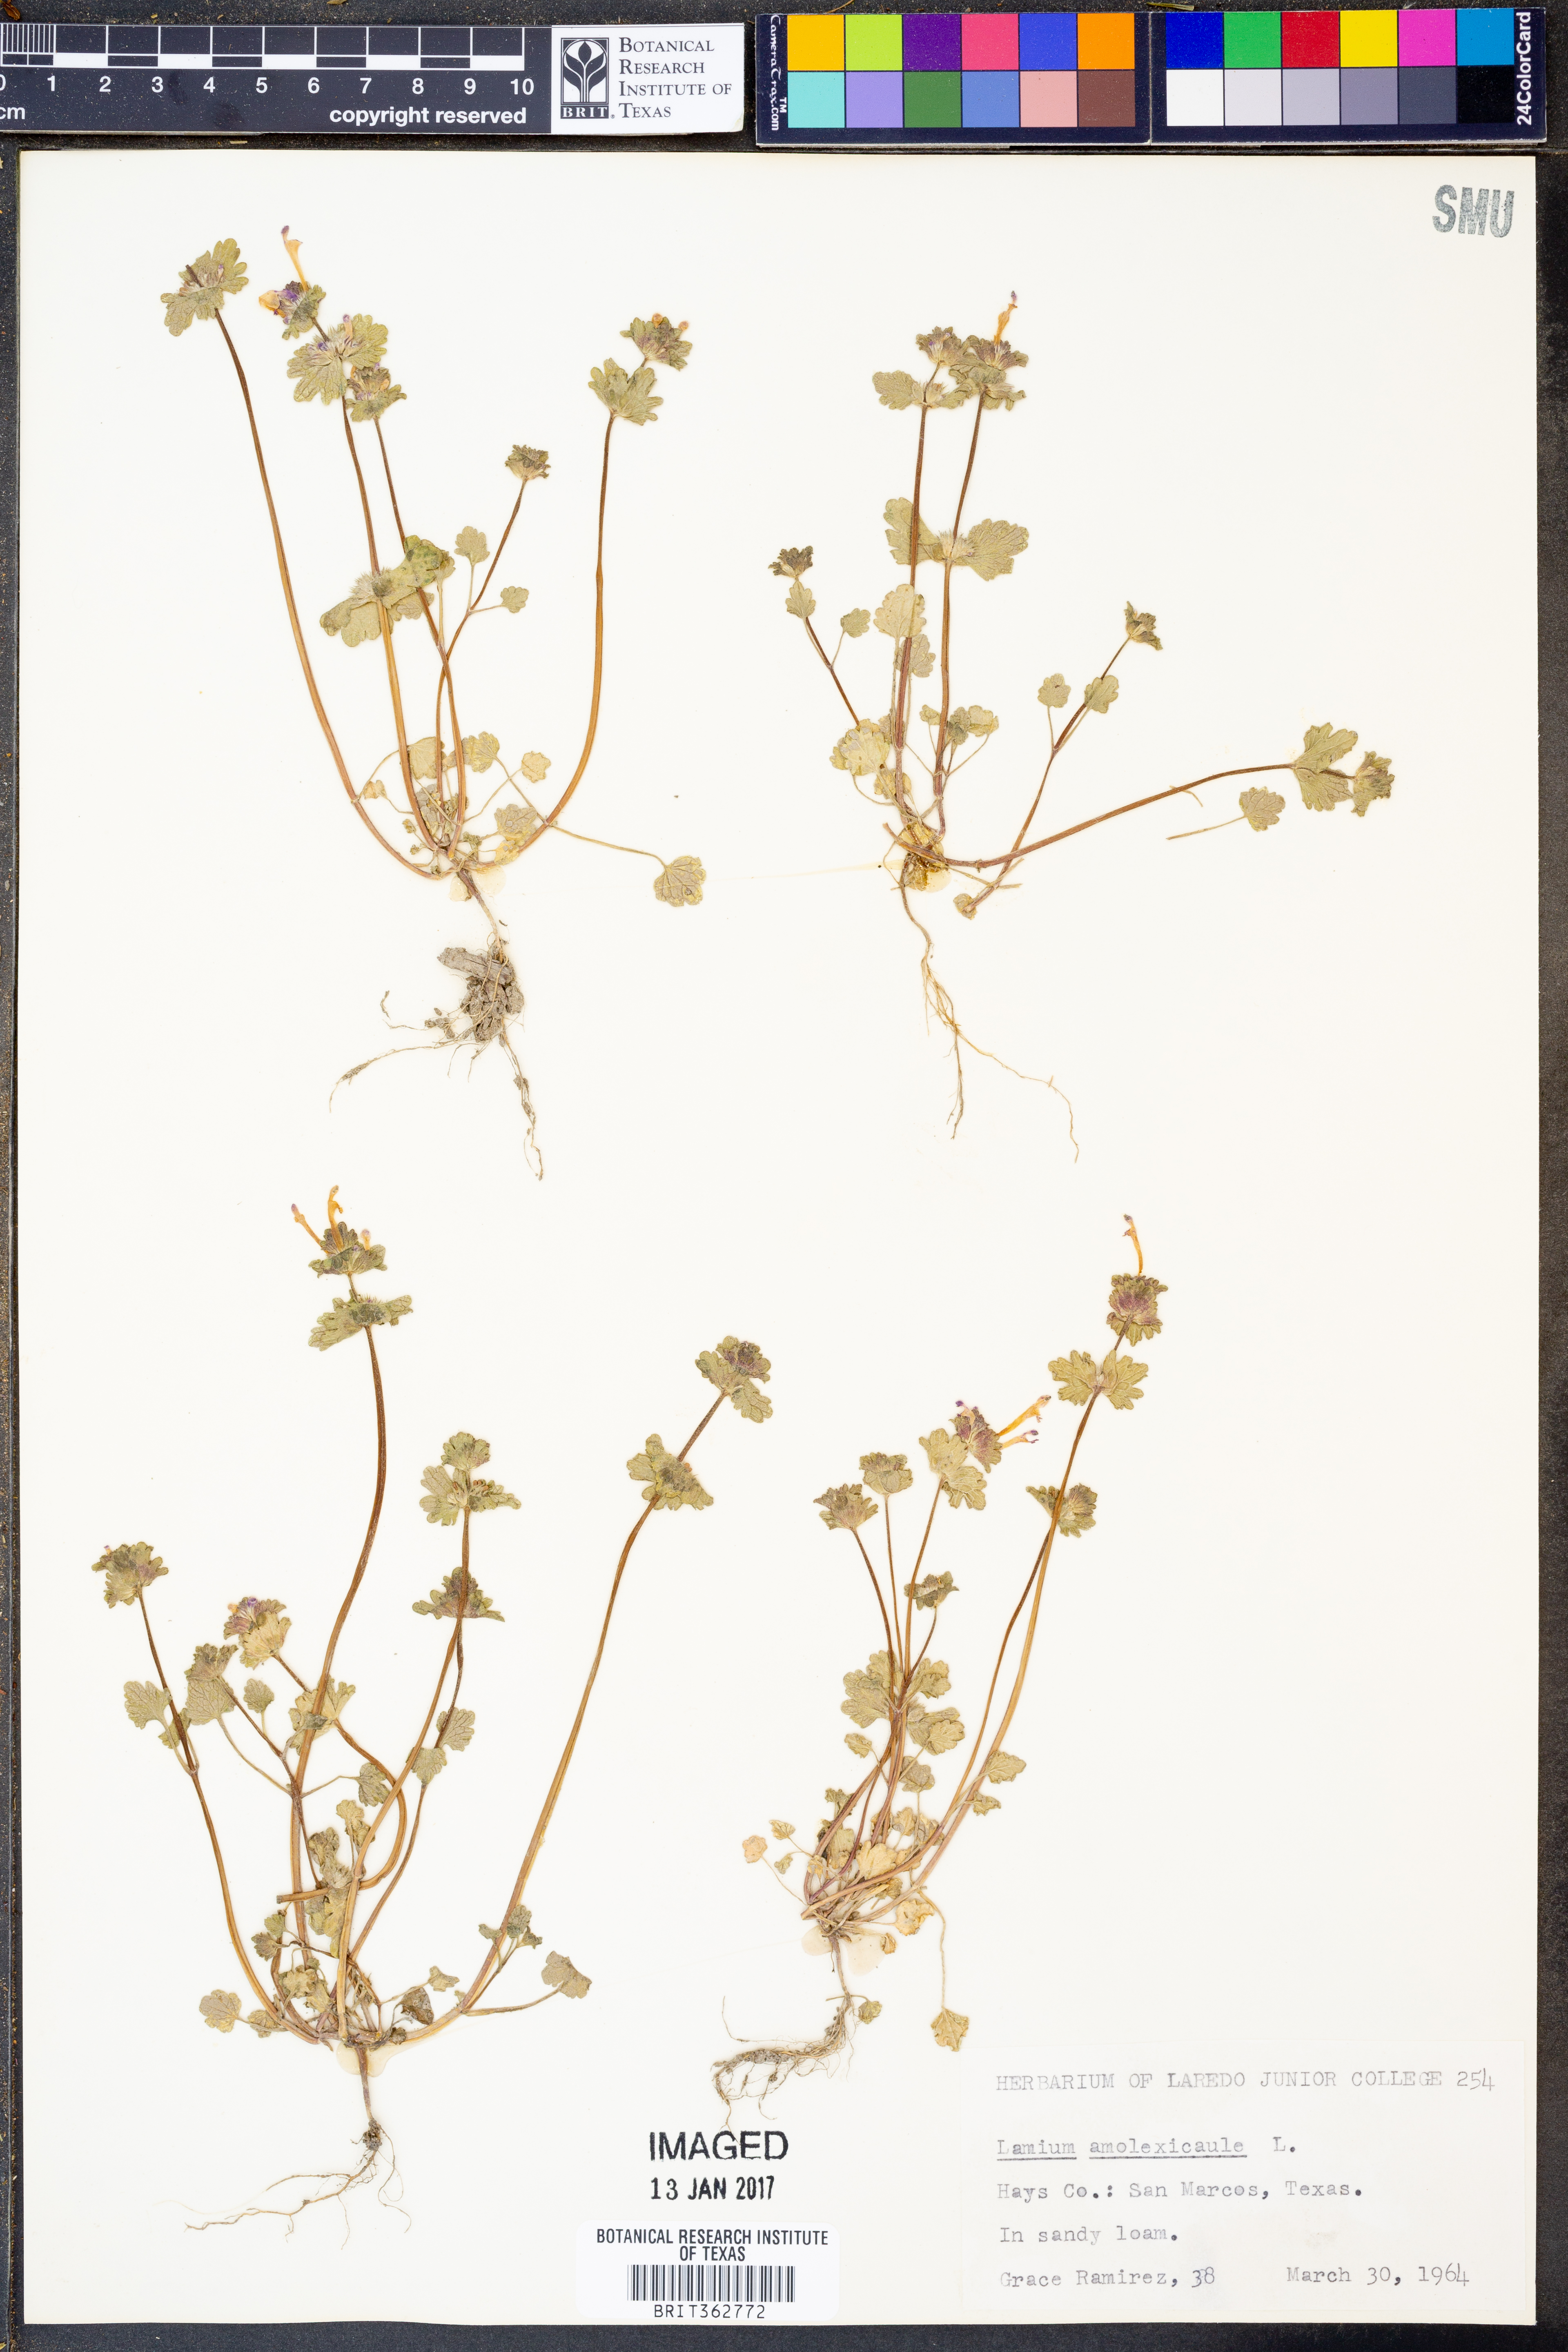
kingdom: Plantae
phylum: Tracheophyta
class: Magnoliopsida
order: Lamiales
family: Lamiaceae
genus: Lamium
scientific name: Lamium amplexicaule
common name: Henbit dead-nettle
